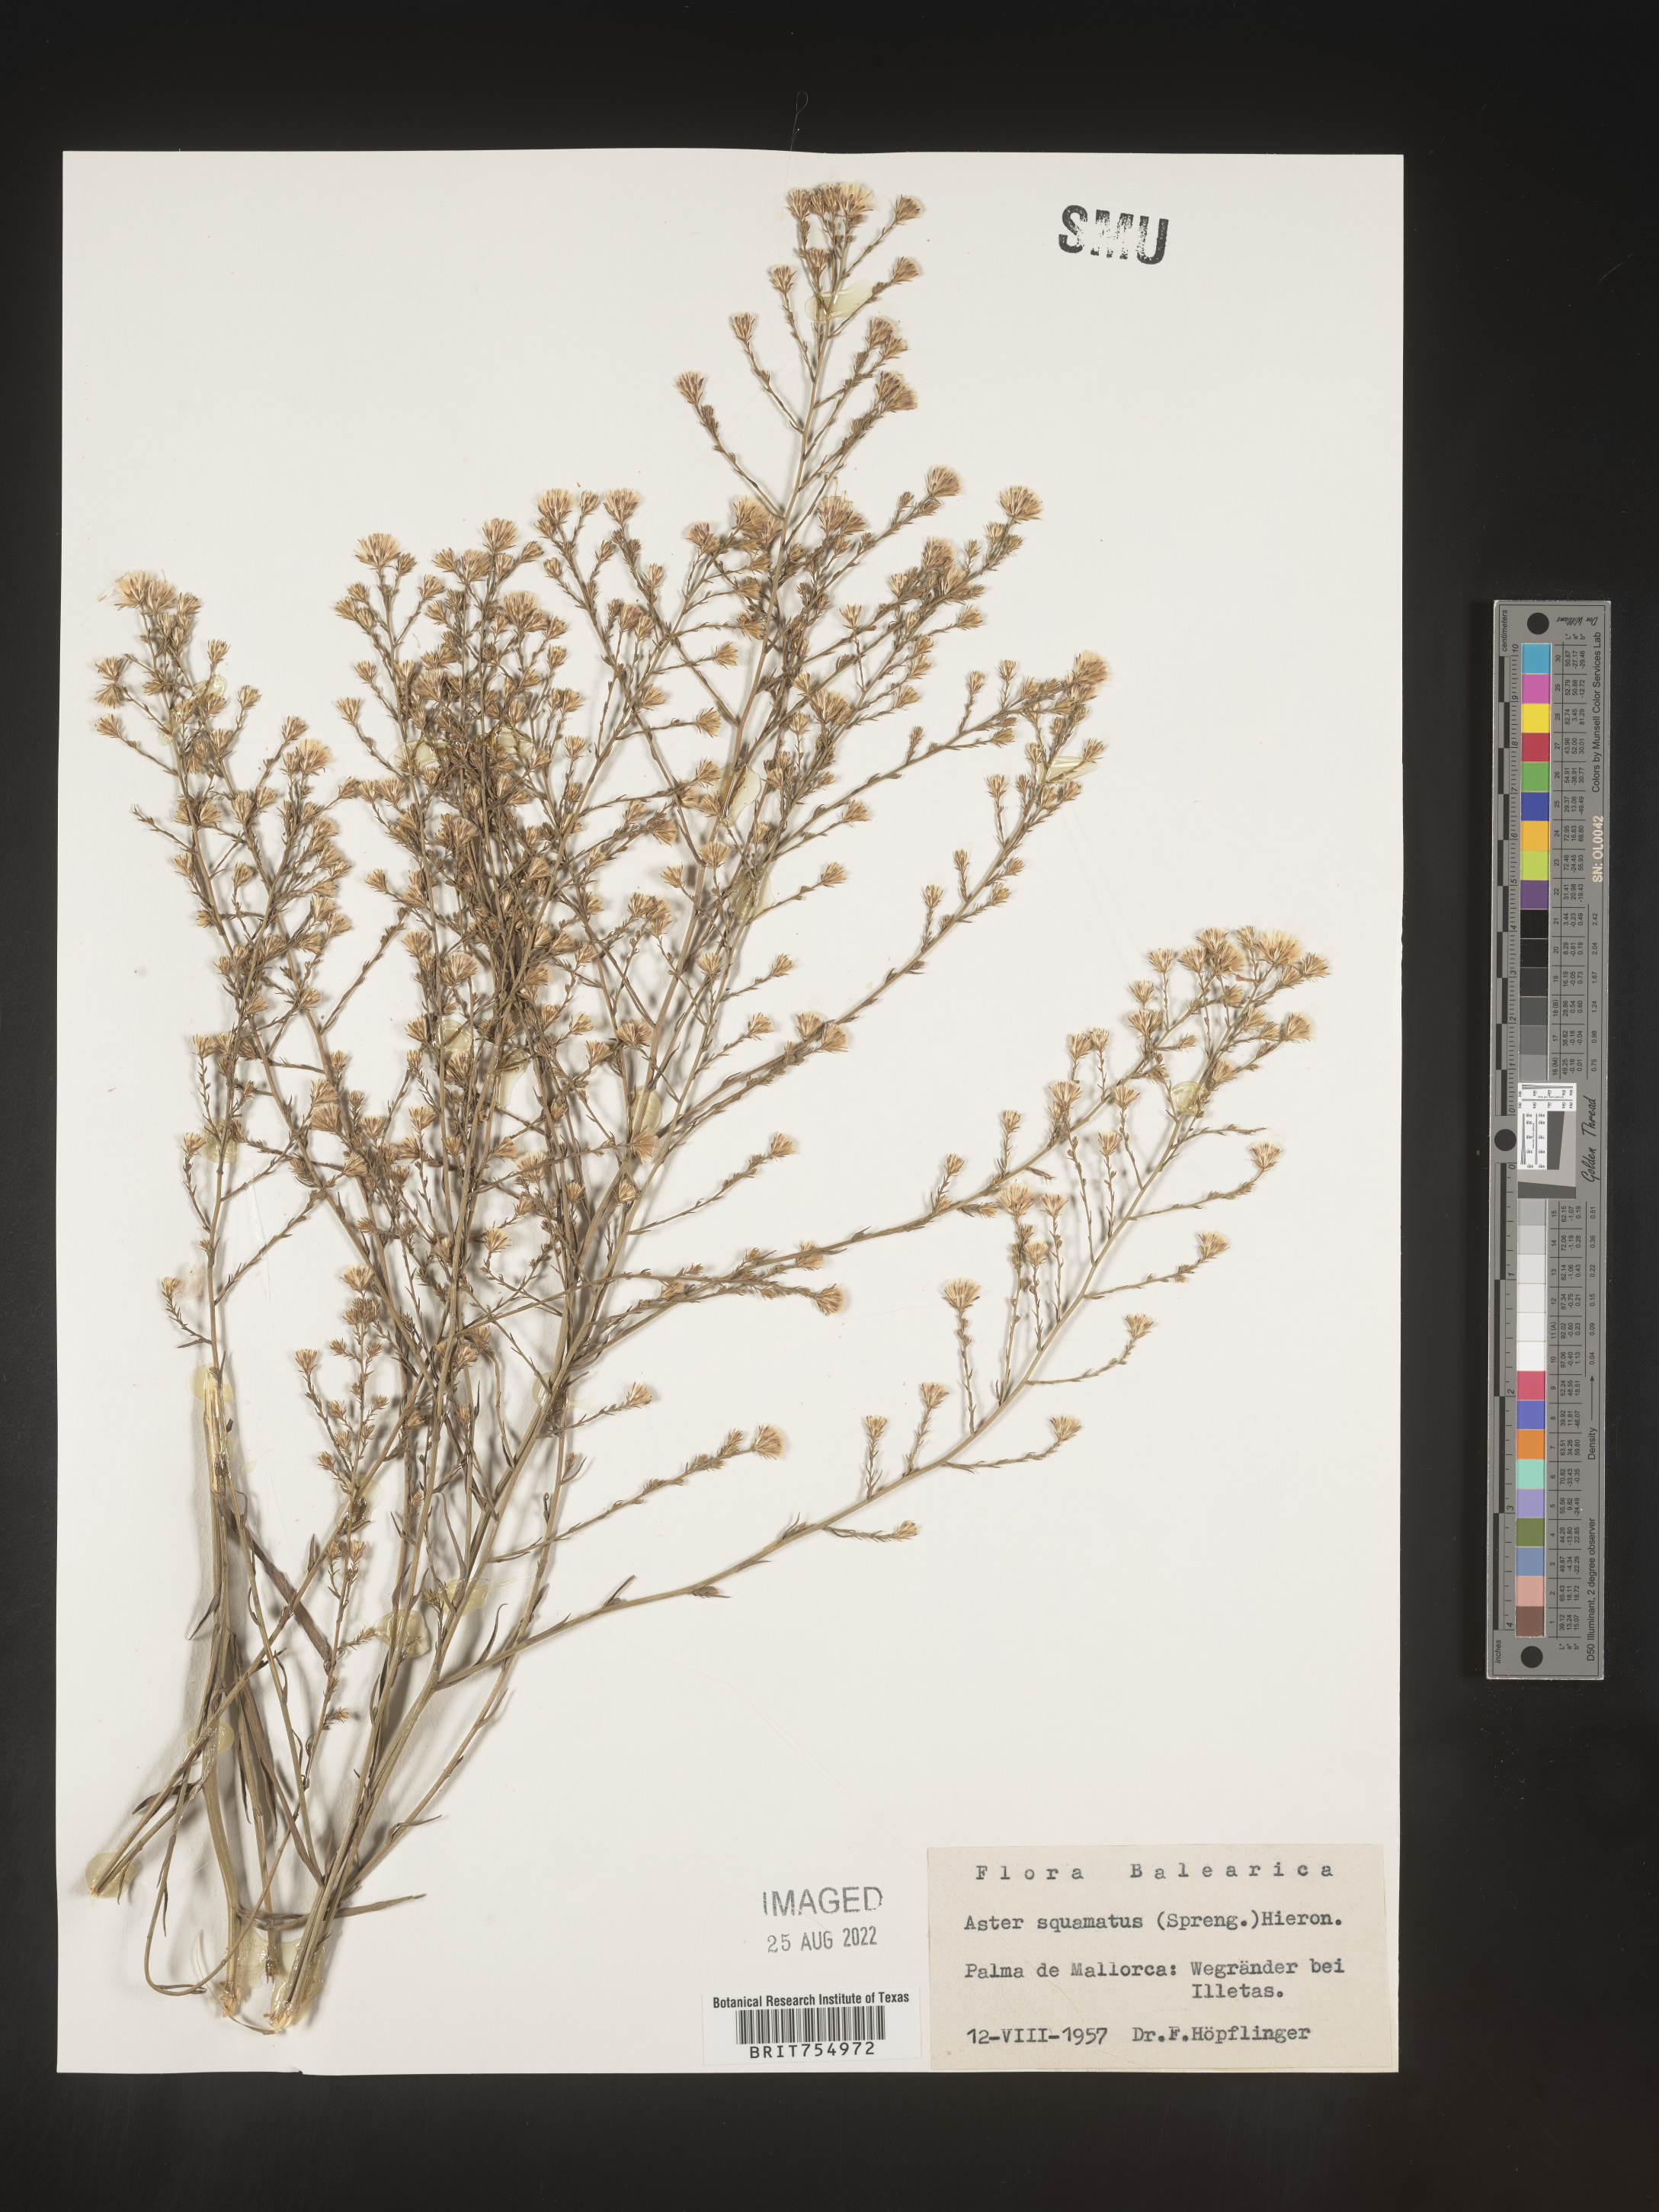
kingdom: Plantae
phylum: Tracheophyta
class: Magnoliopsida
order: Asterales
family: Asteraceae
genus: Symphyotrichum
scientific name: Symphyotrichum
